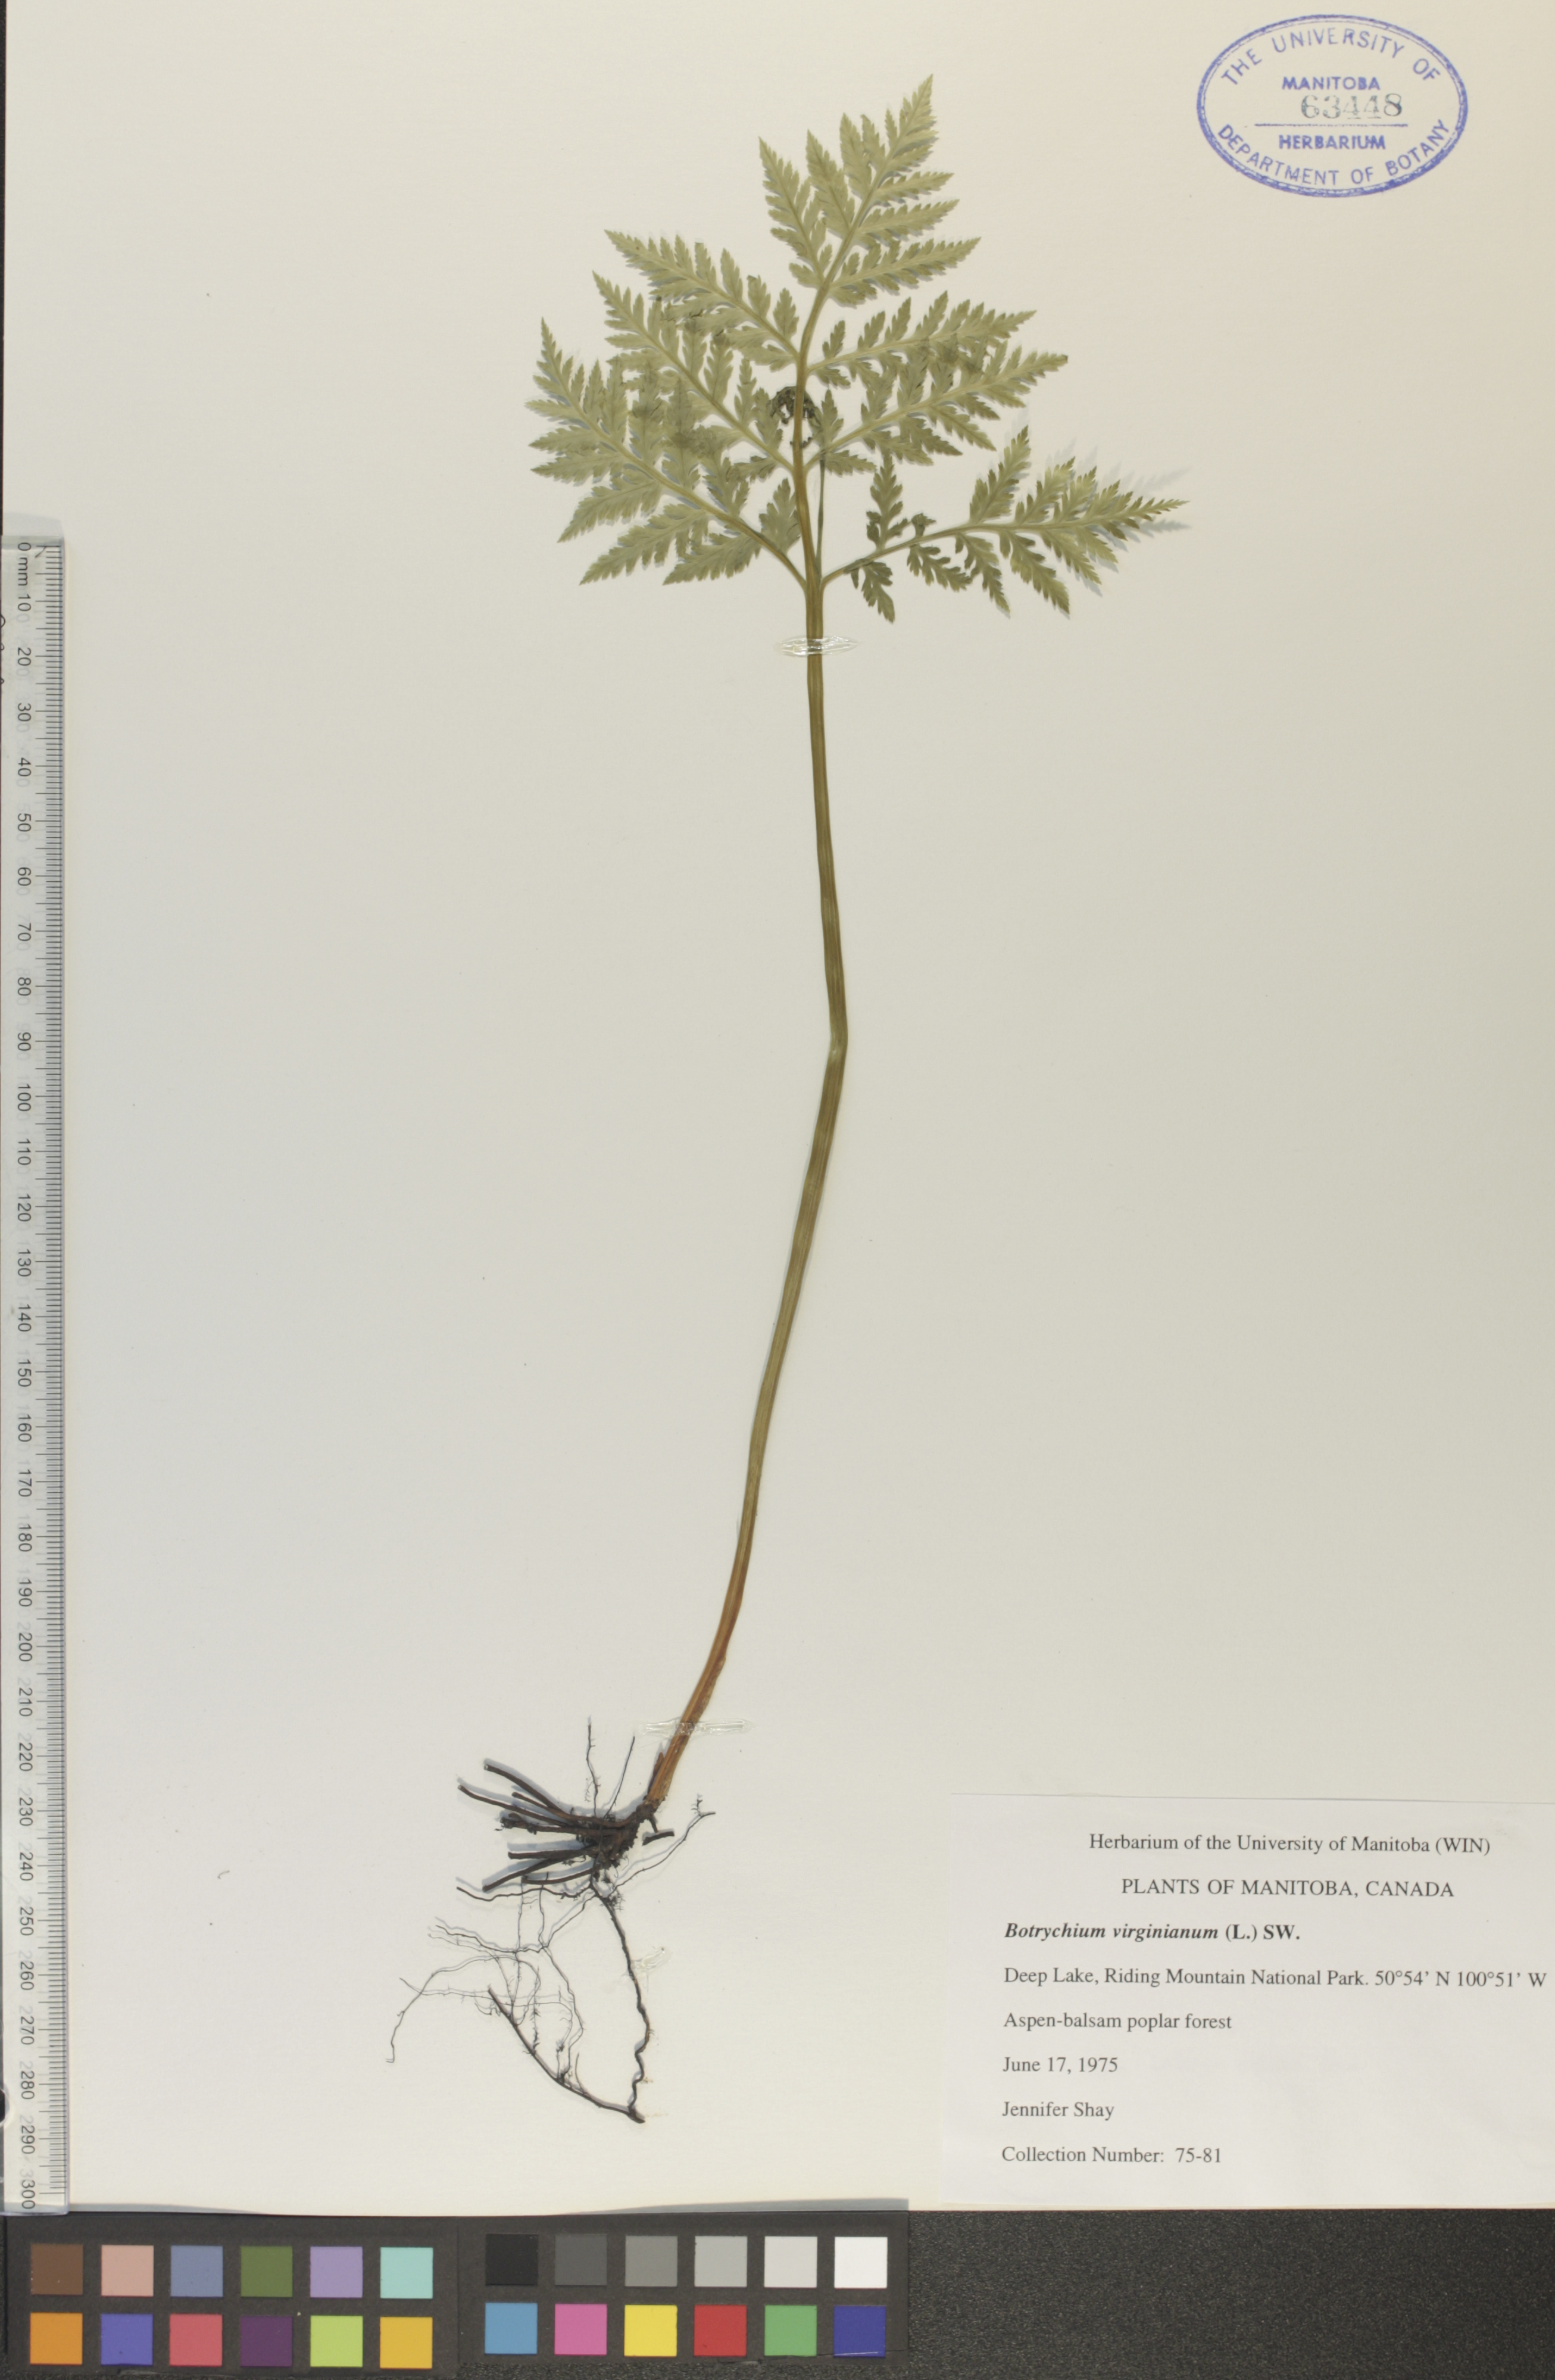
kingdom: Plantae
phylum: Tracheophyta
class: Polypodiopsida
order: Ophioglossales
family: Ophioglossaceae
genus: Botrypus
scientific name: Botrypus virginianus
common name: Common grapefern
